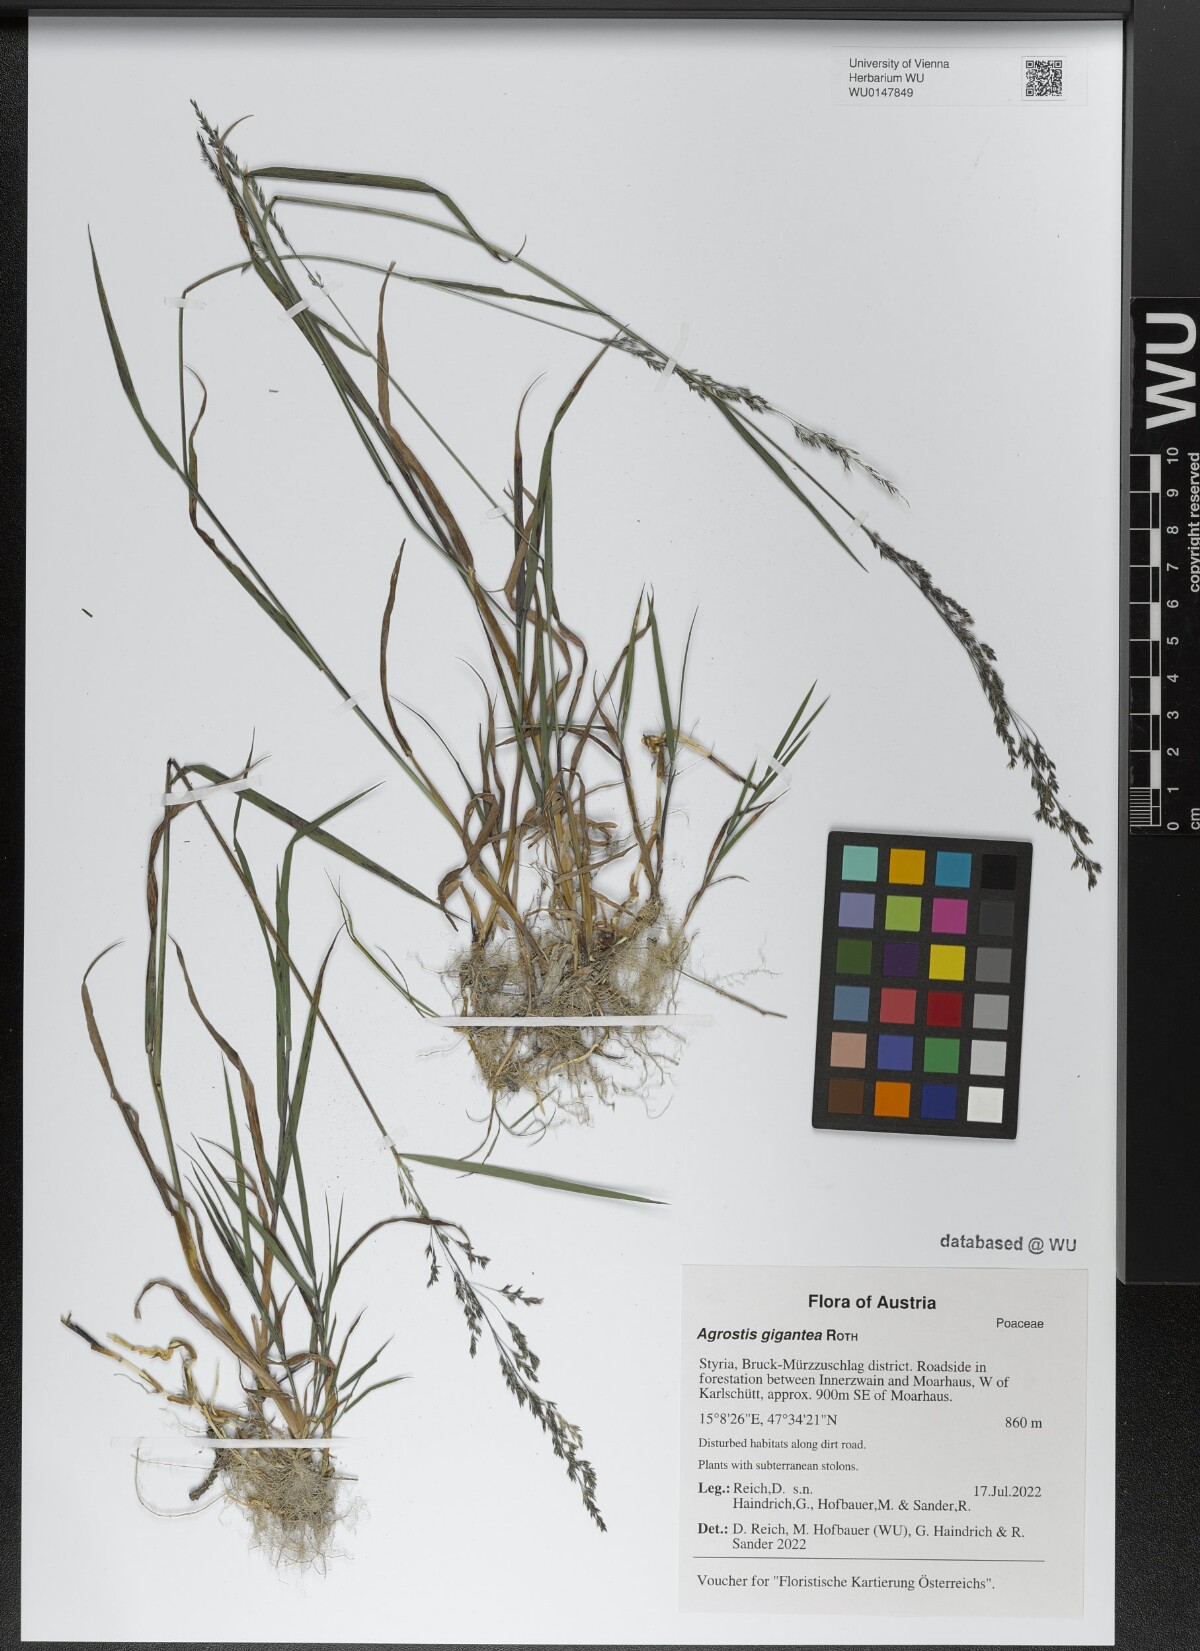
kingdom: Plantae
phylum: Tracheophyta
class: Liliopsida
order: Poales
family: Poaceae
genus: Agrostis
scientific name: Agrostis gigantea
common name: Black bent
